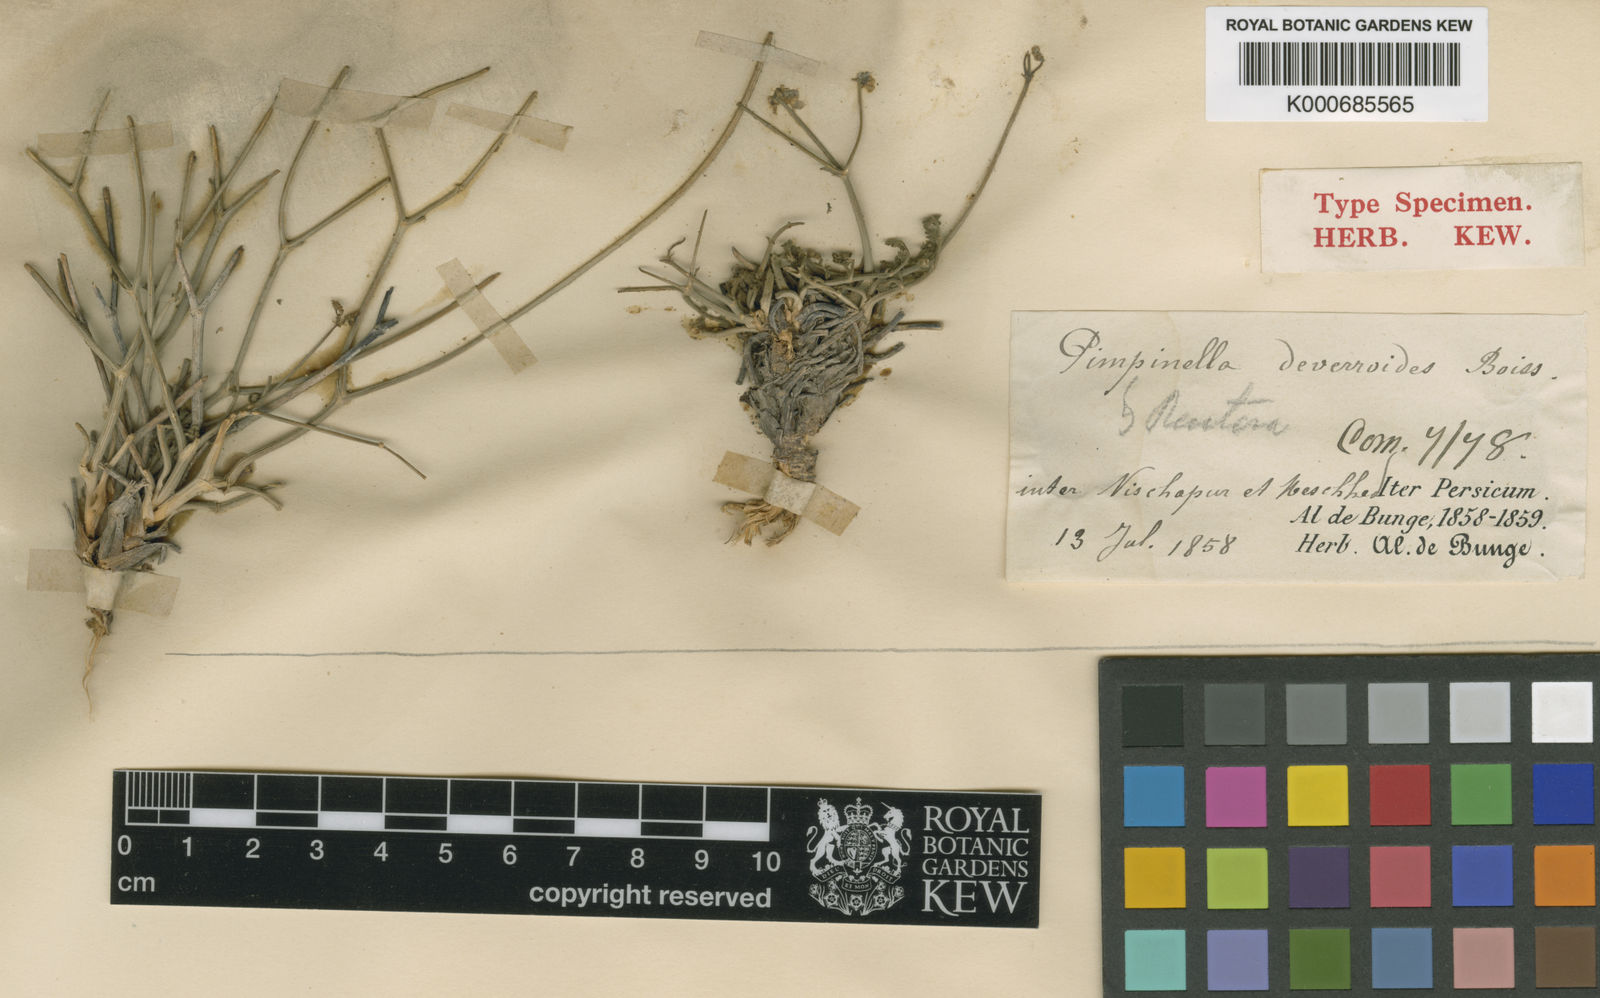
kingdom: Plantae
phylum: Tracheophyta
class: Magnoliopsida
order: Apiales
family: Apiaceae
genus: Pimpinella
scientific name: Pimpinella deverroides
